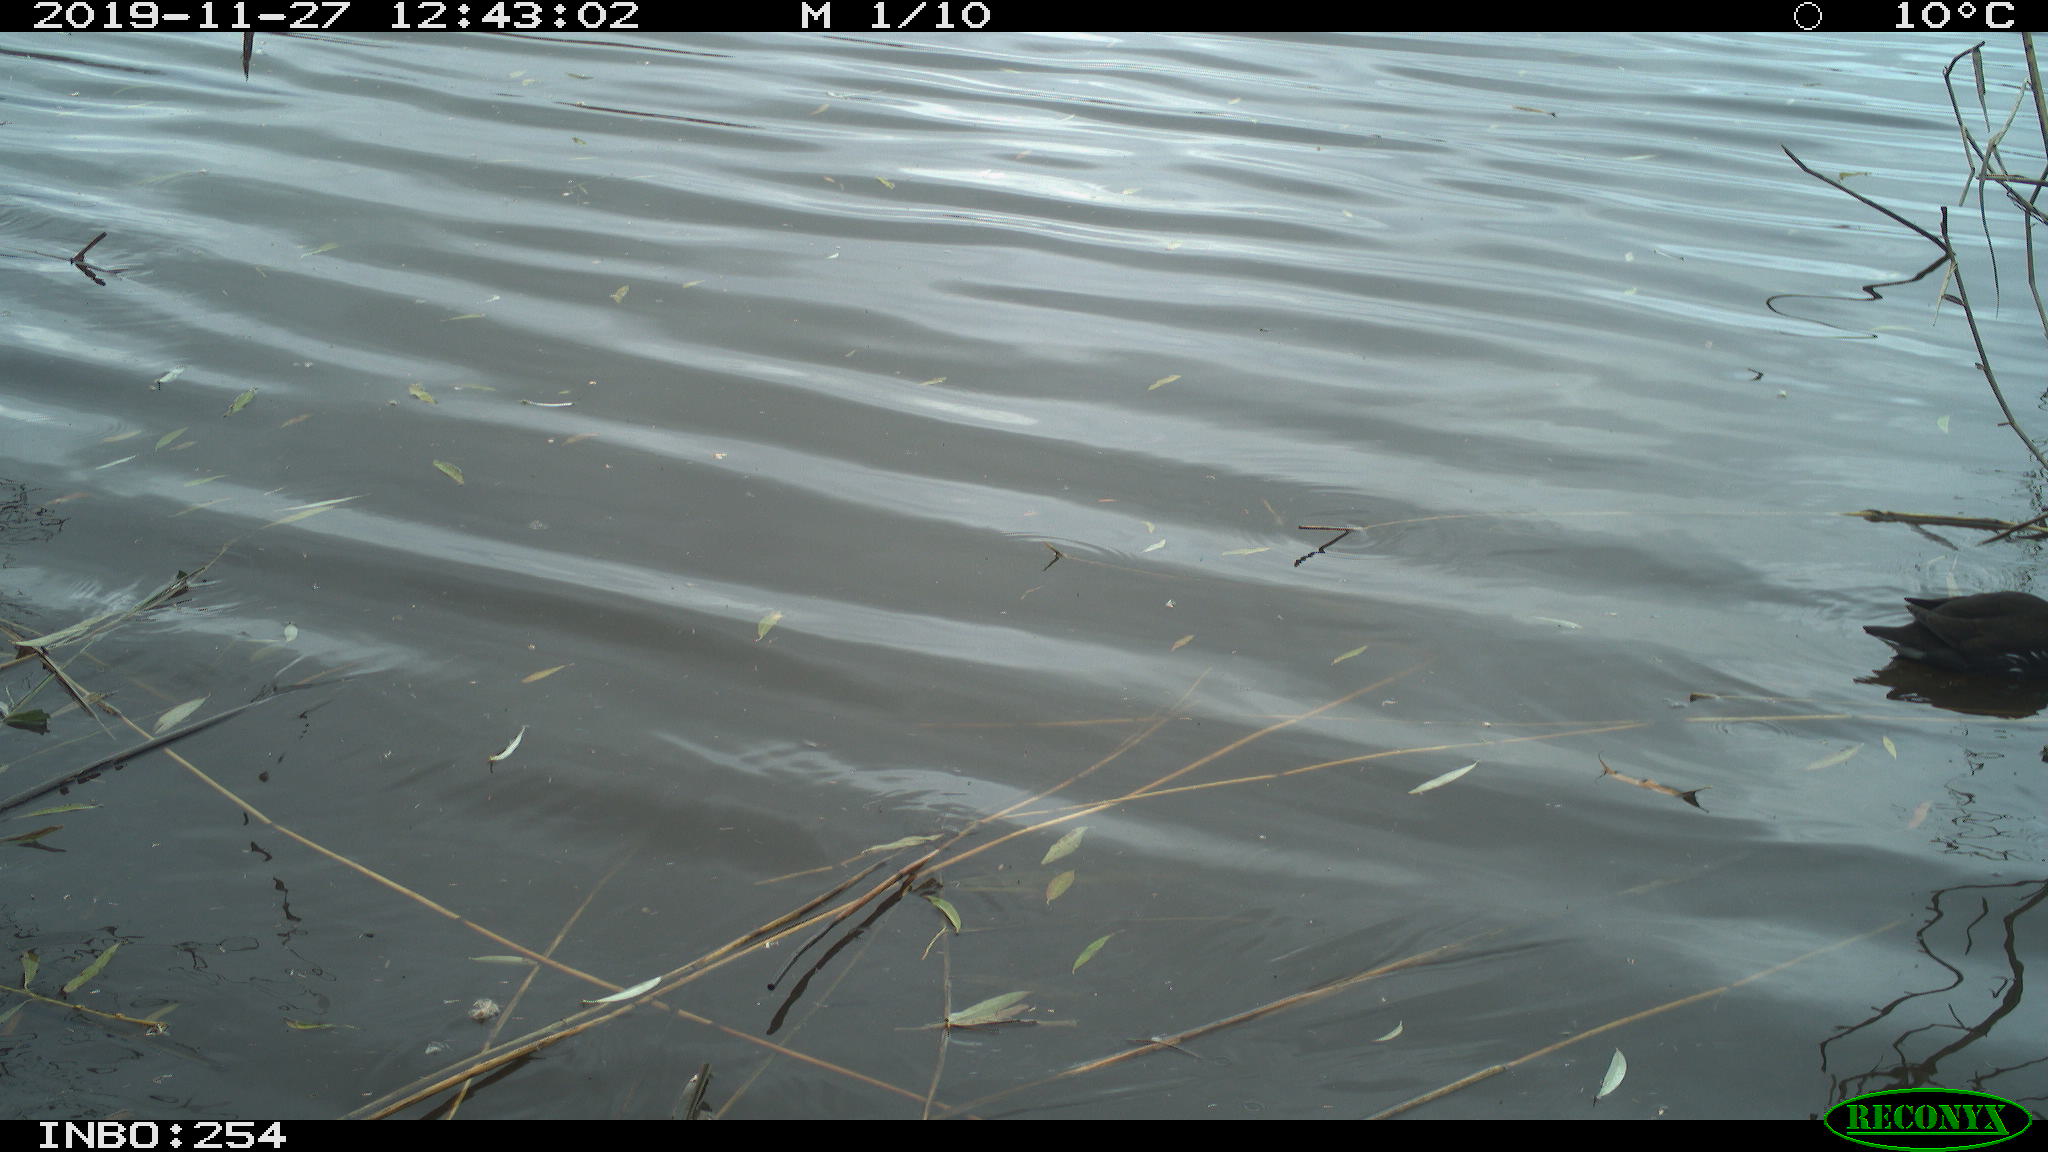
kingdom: Animalia
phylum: Chordata
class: Aves
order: Gruiformes
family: Rallidae
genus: Gallinula
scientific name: Gallinula chloropus
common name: Common moorhen
